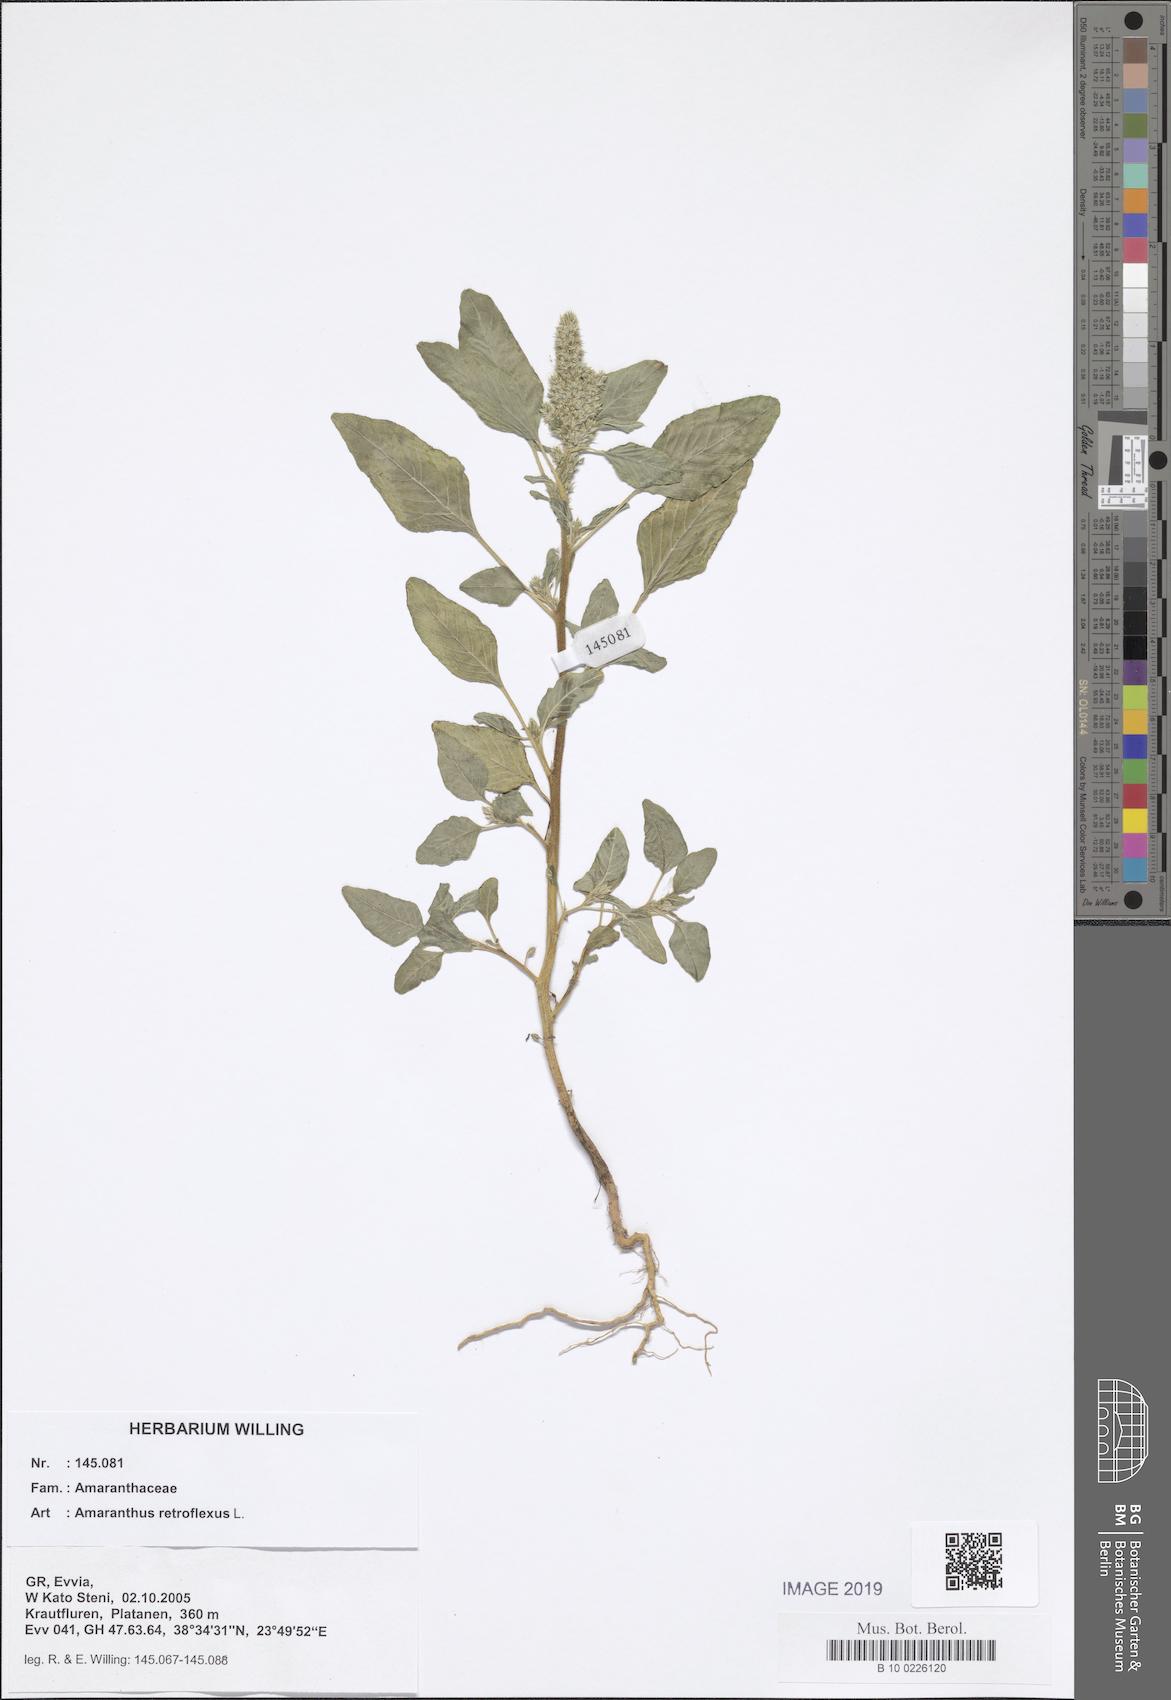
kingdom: Plantae
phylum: Tracheophyta
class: Magnoliopsida
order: Caryophyllales
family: Amaranthaceae
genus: Amaranthus
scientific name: Amaranthus retroflexus
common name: Redroot amaranth
